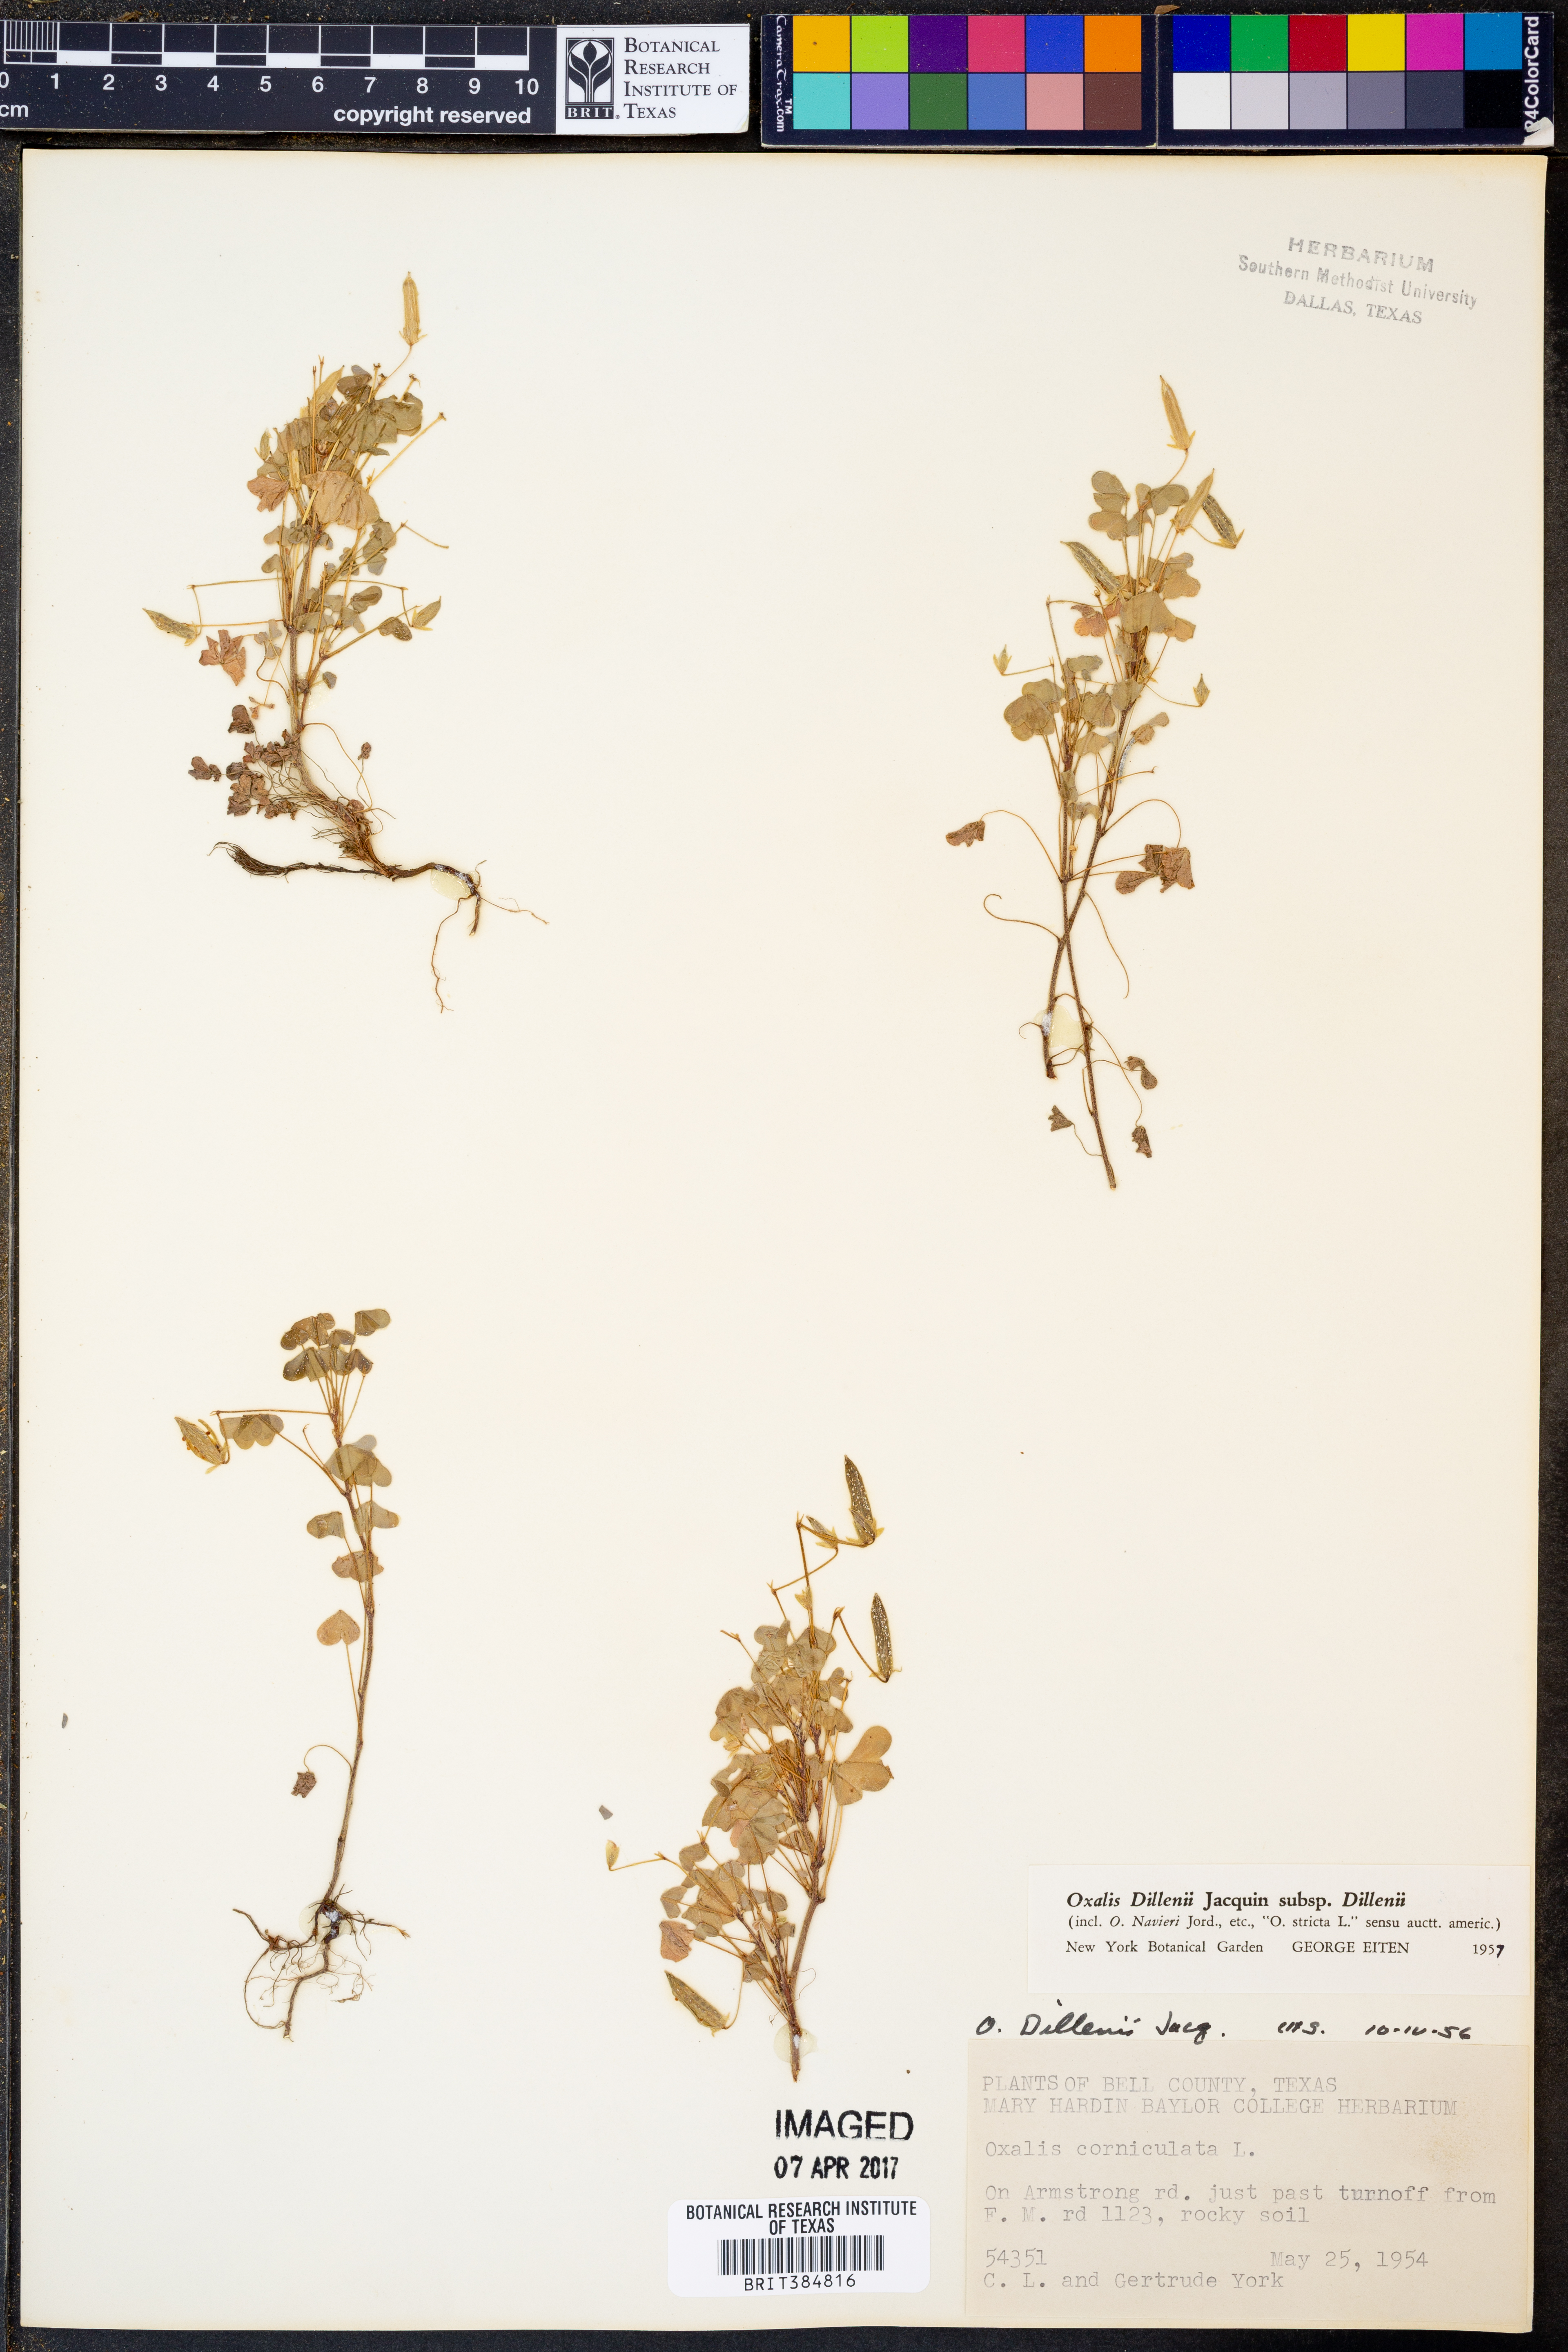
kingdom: Plantae
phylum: Tracheophyta
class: Magnoliopsida
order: Oxalidales
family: Oxalidaceae
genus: Oxalis
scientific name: Oxalis dillenii
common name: Sussex yellow-sorrel
